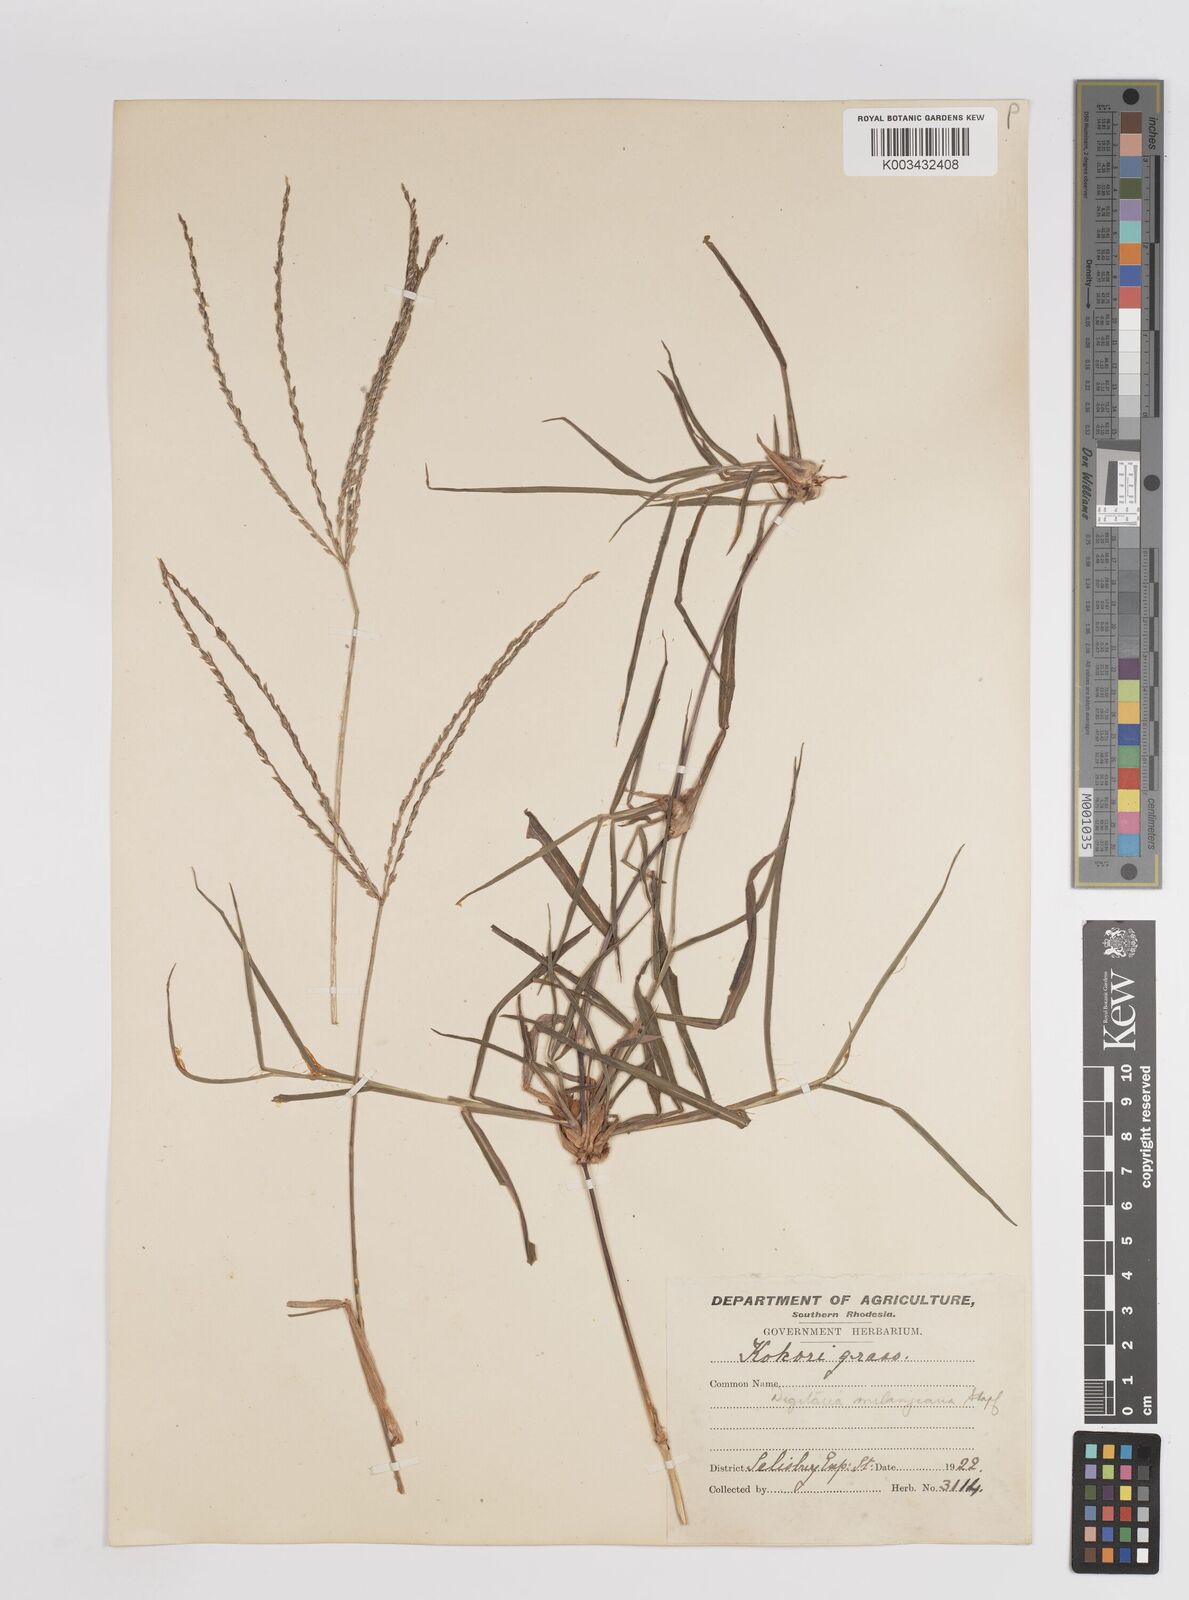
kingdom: Plantae
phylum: Tracheophyta
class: Liliopsida
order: Poales
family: Poaceae
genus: Digitaria
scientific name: Digitaria eriantha
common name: Digitgrass
